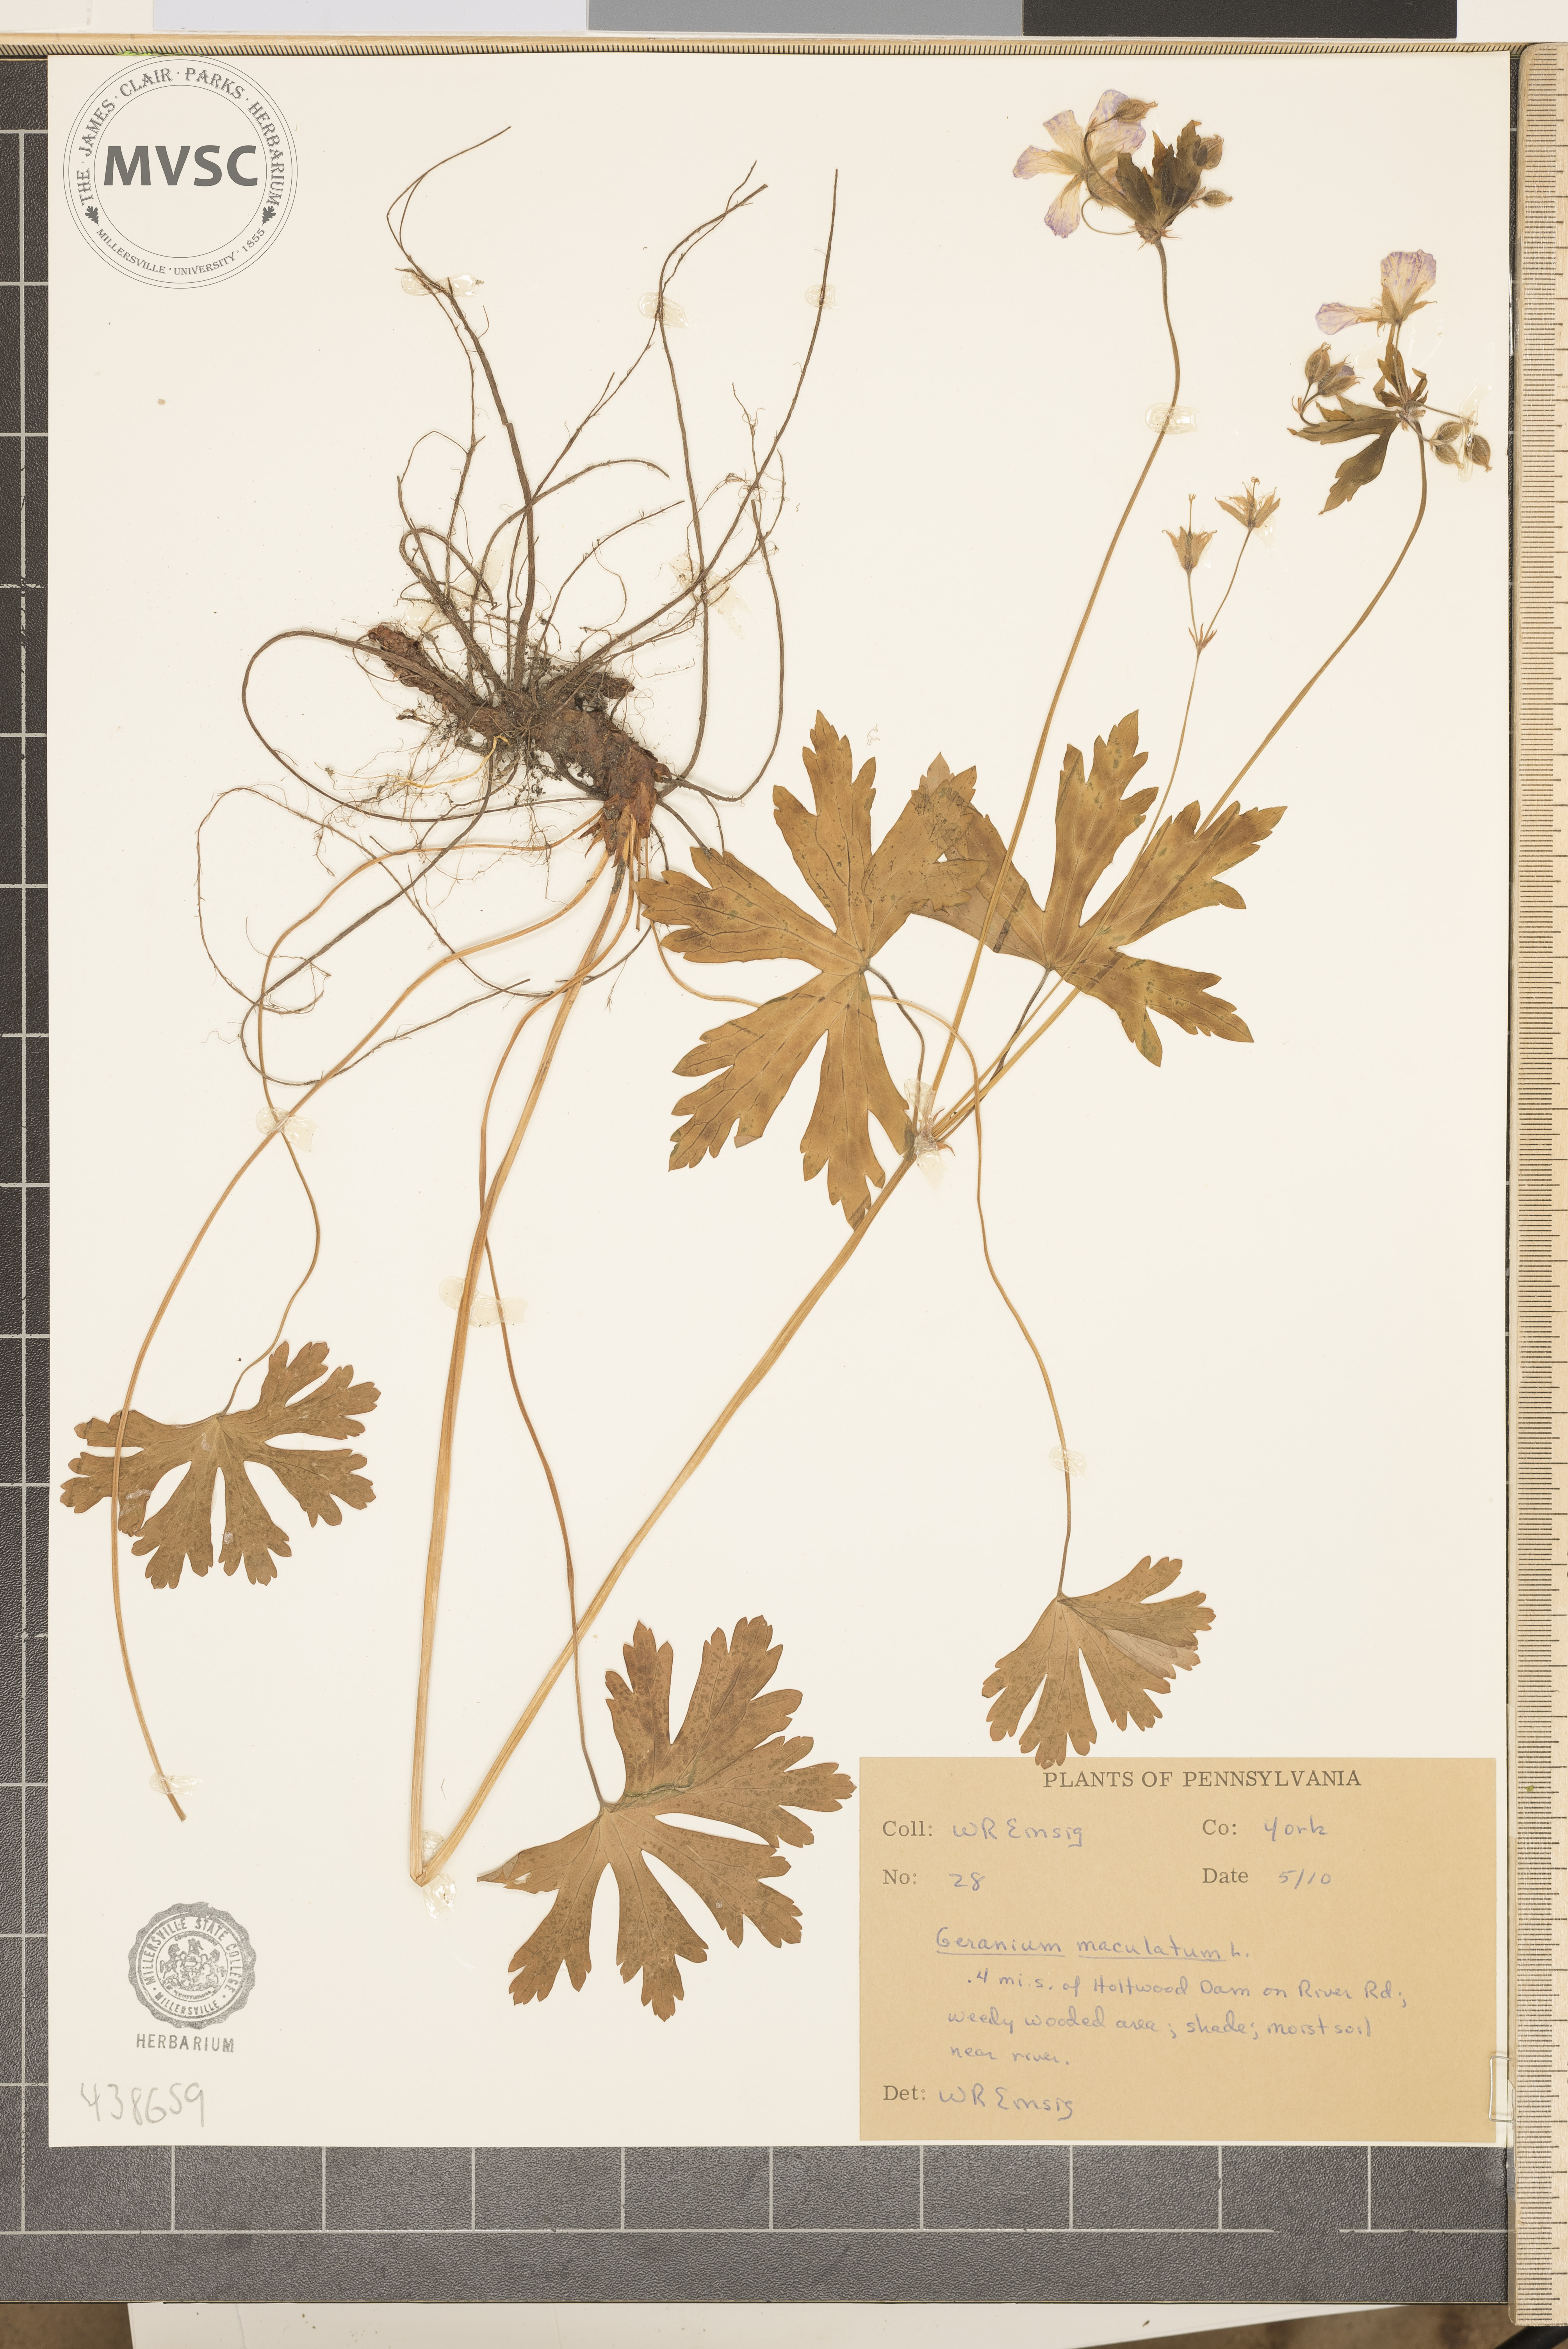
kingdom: Plantae
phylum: Tracheophyta
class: Magnoliopsida
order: Geraniales
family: Geraniaceae
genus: Geranium
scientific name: Geranium maculatum
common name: Spotted geranium
